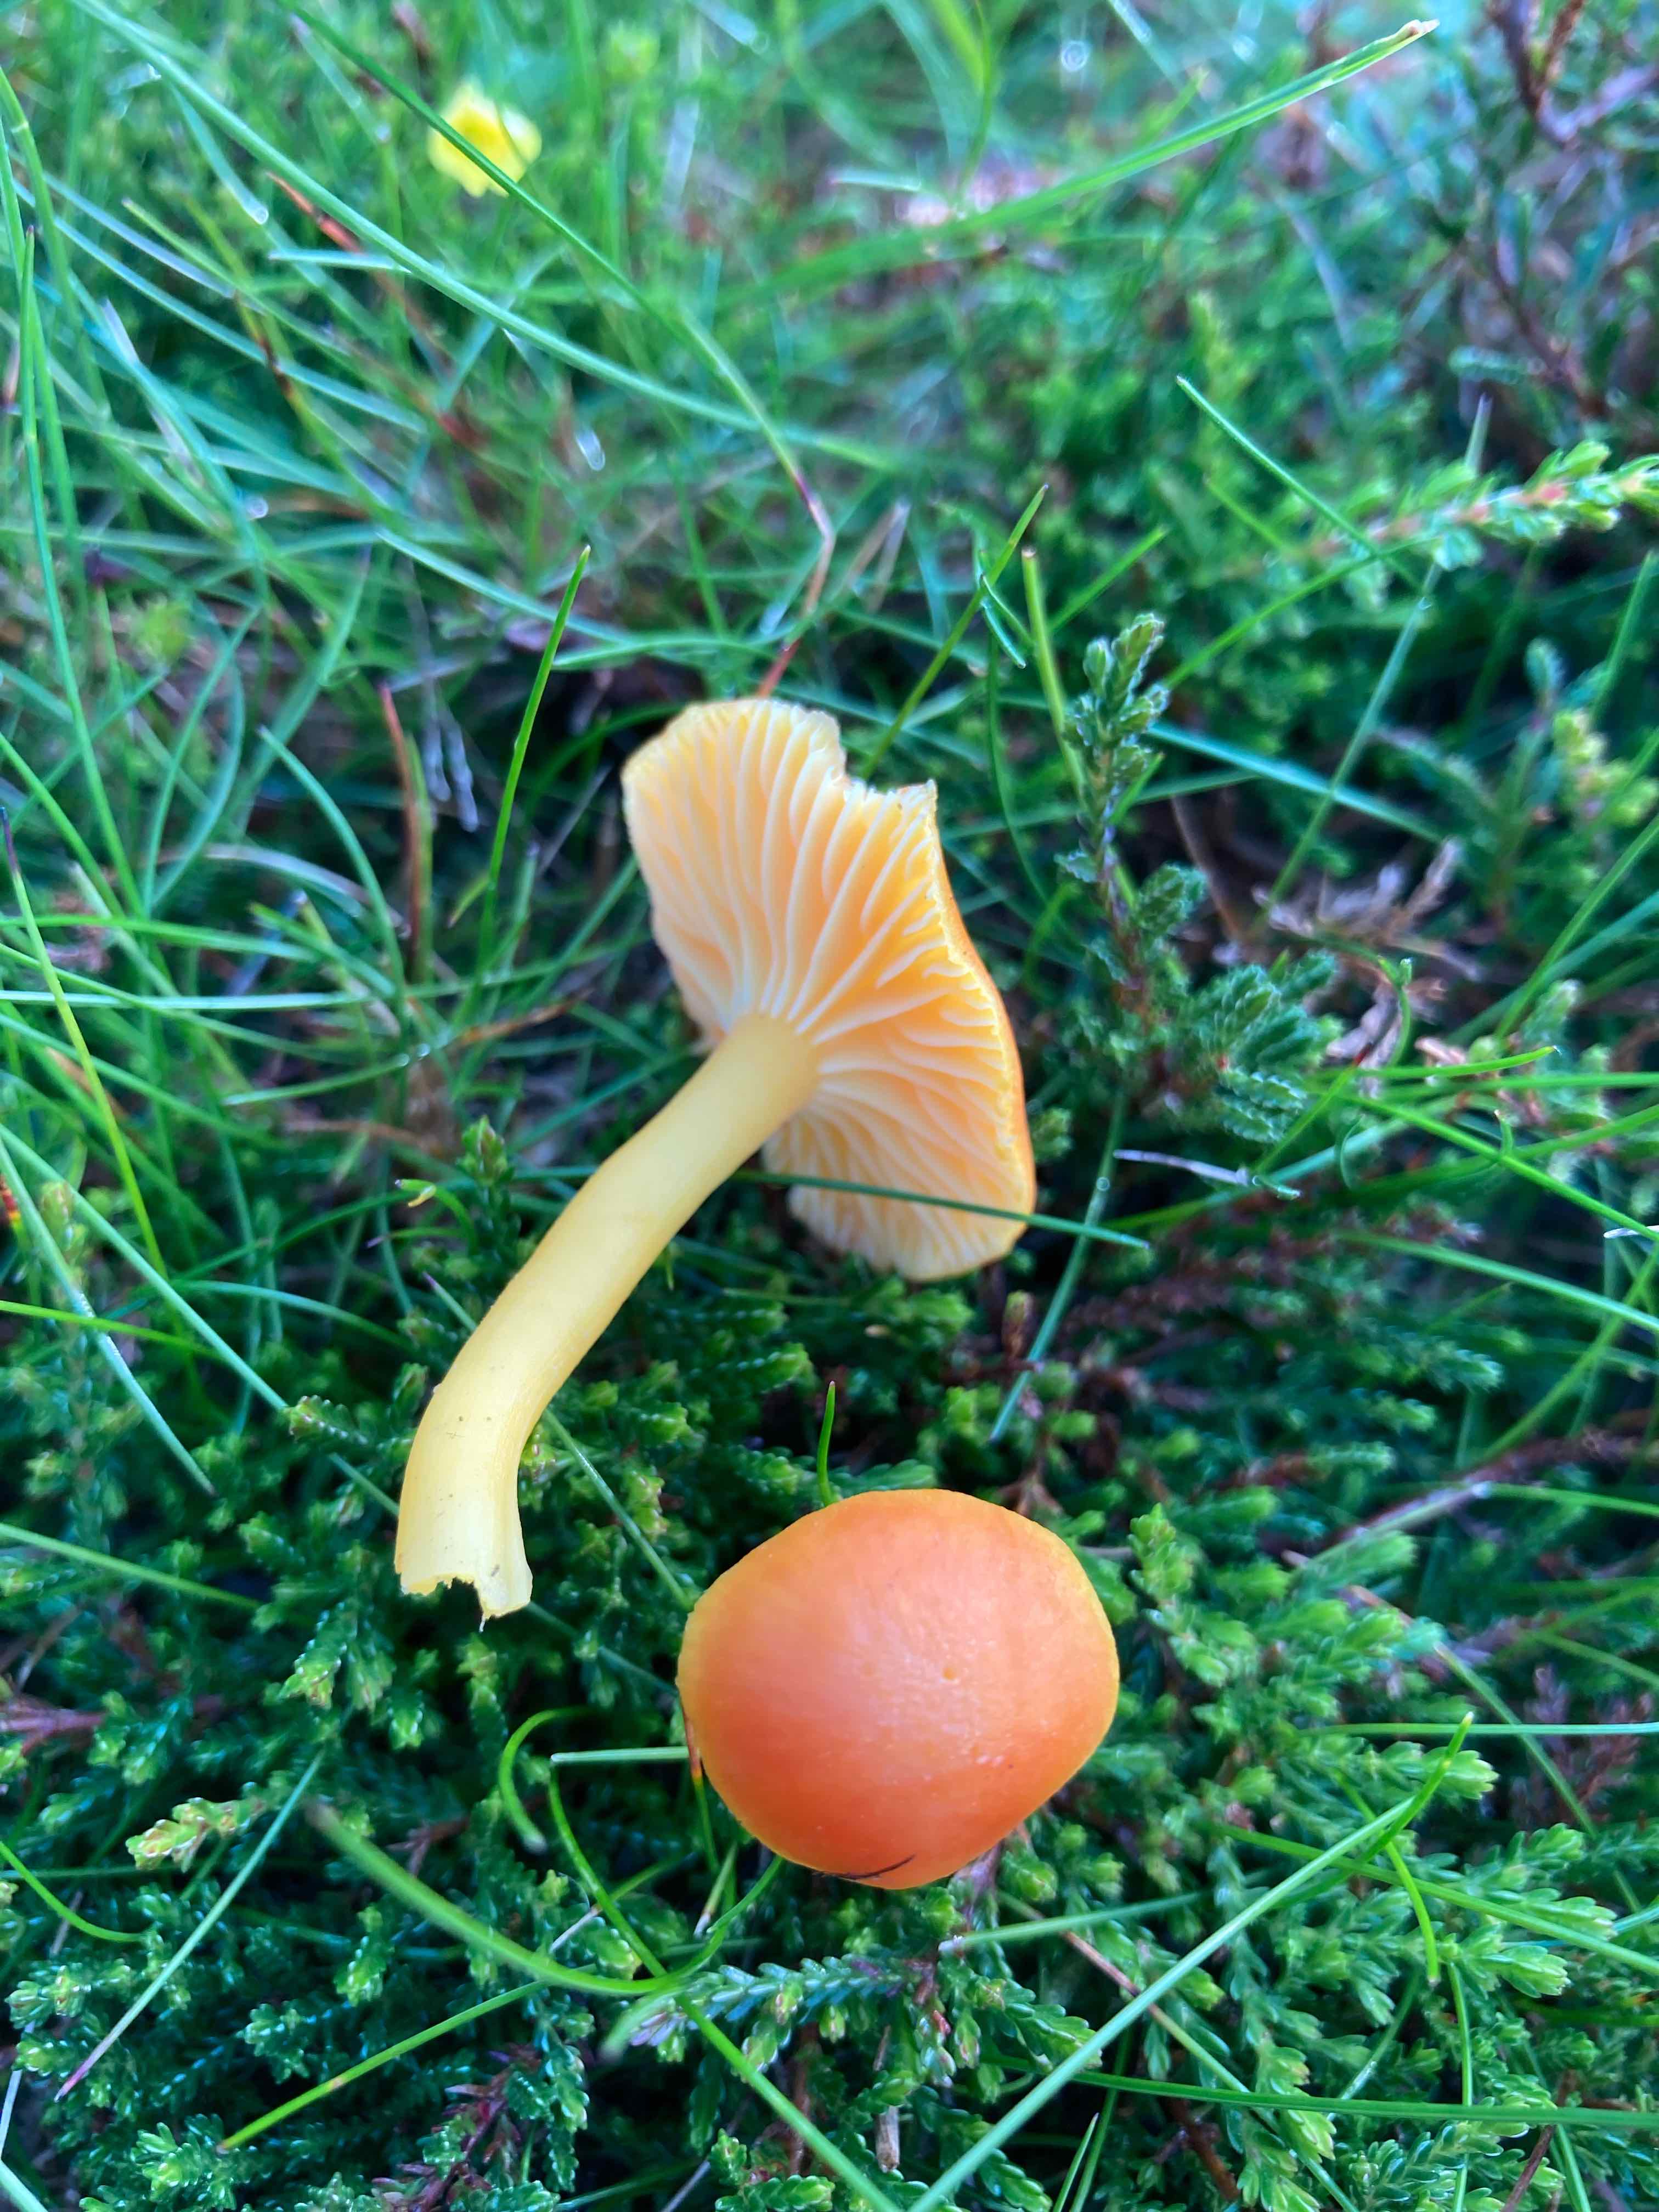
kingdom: Fungi
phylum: Basidiomycota
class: Agaricomycetes
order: Agaricales
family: Hygrophoraceae
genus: Hygrocybe
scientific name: Hygrocybe reidii
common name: honning-vokshat
